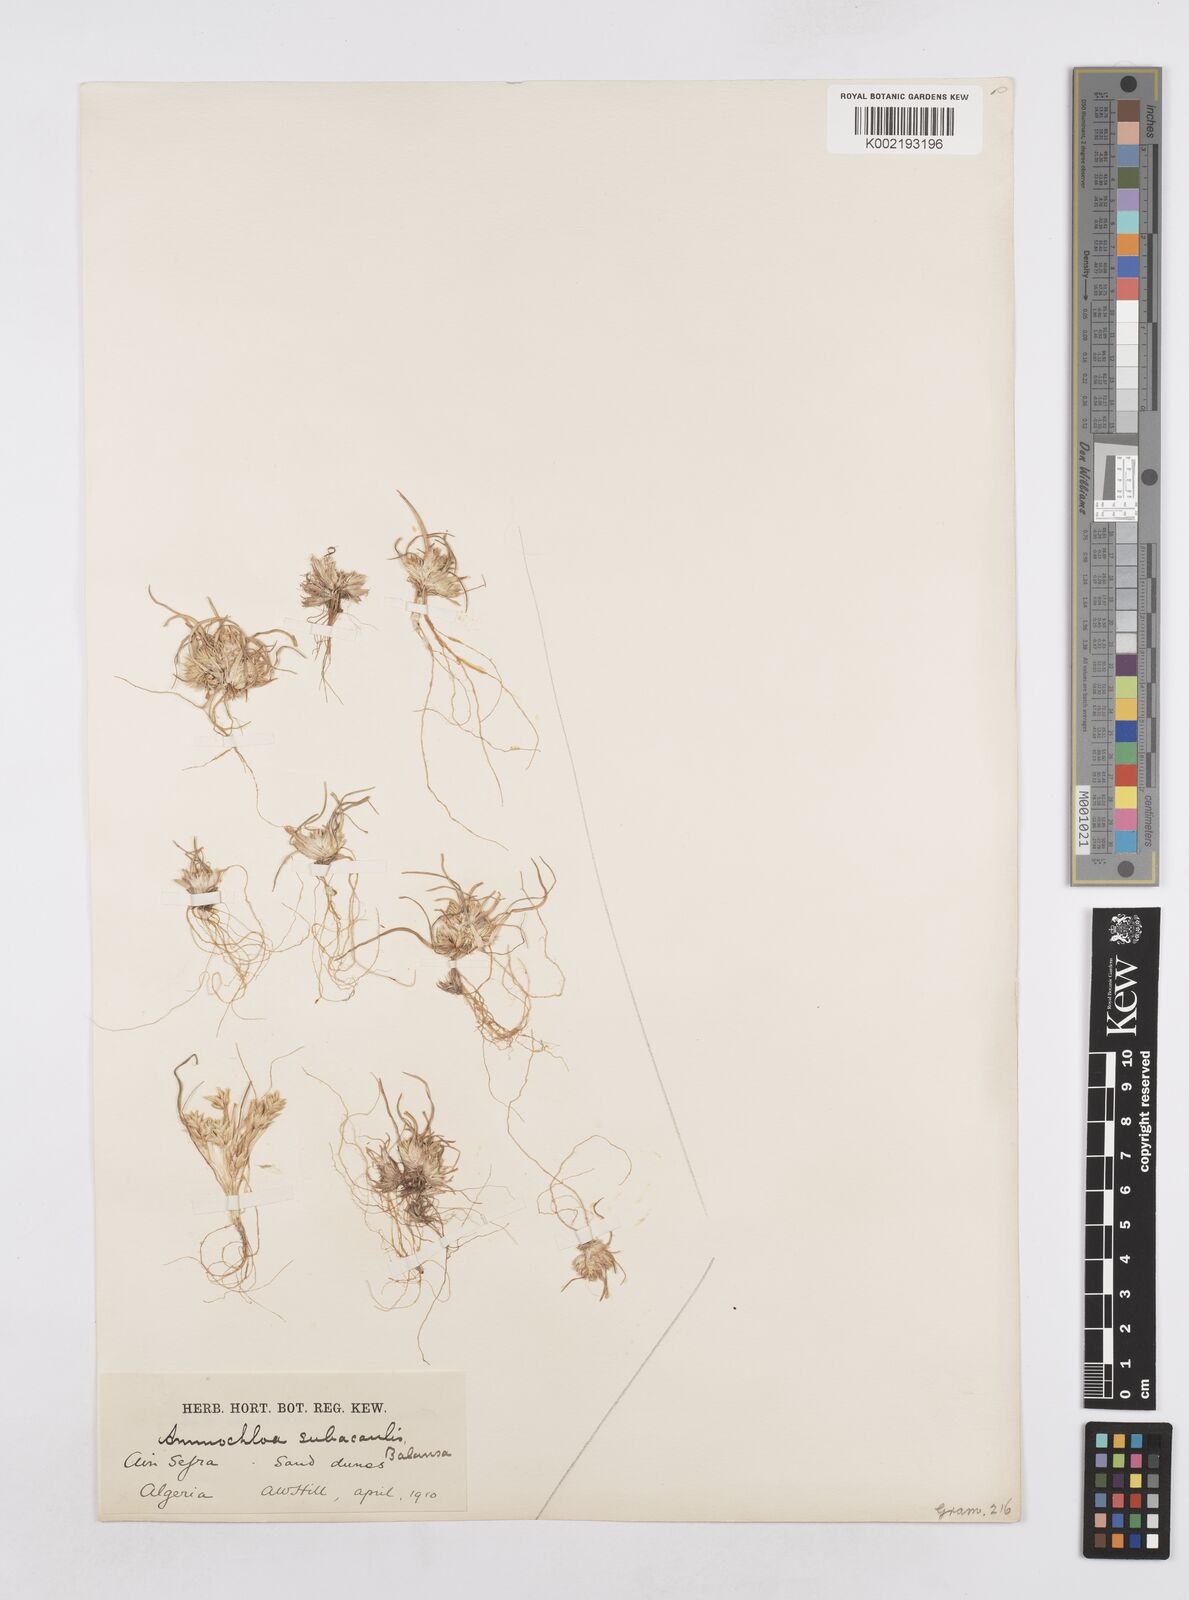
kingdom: Plantae
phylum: Tracheophyta
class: Liliopsida
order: Poales
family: Poaceae
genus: Ammochloa
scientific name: Ammochloa palaestina
